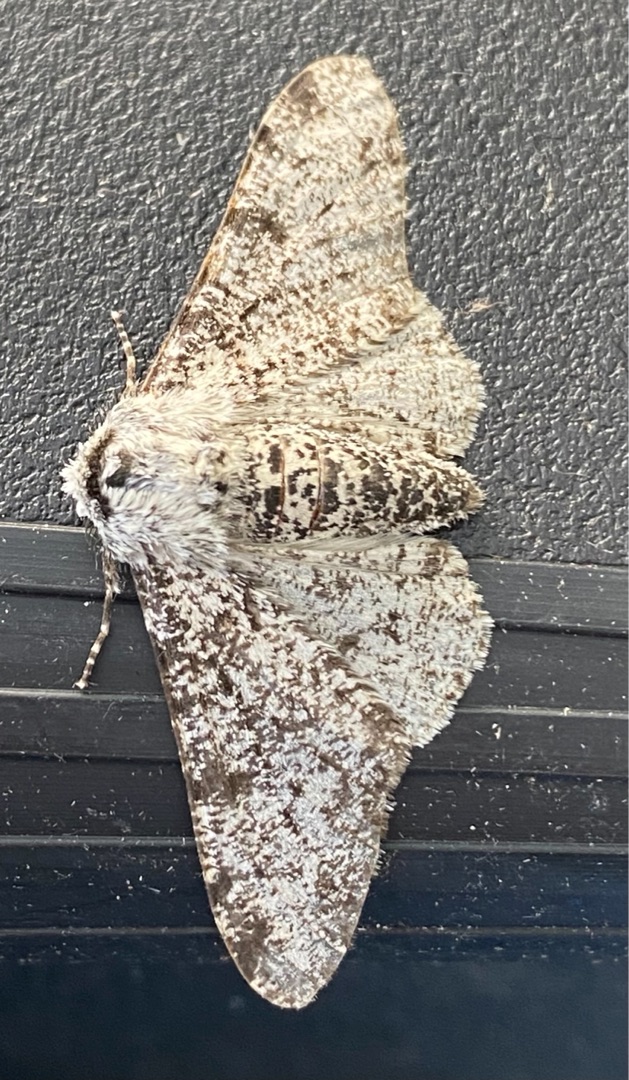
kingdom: Animalia
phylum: Arthropoda
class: Insecta
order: Lepidoptera
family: Geometridae
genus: Biston
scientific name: Biston betularia
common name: Birkemåler
